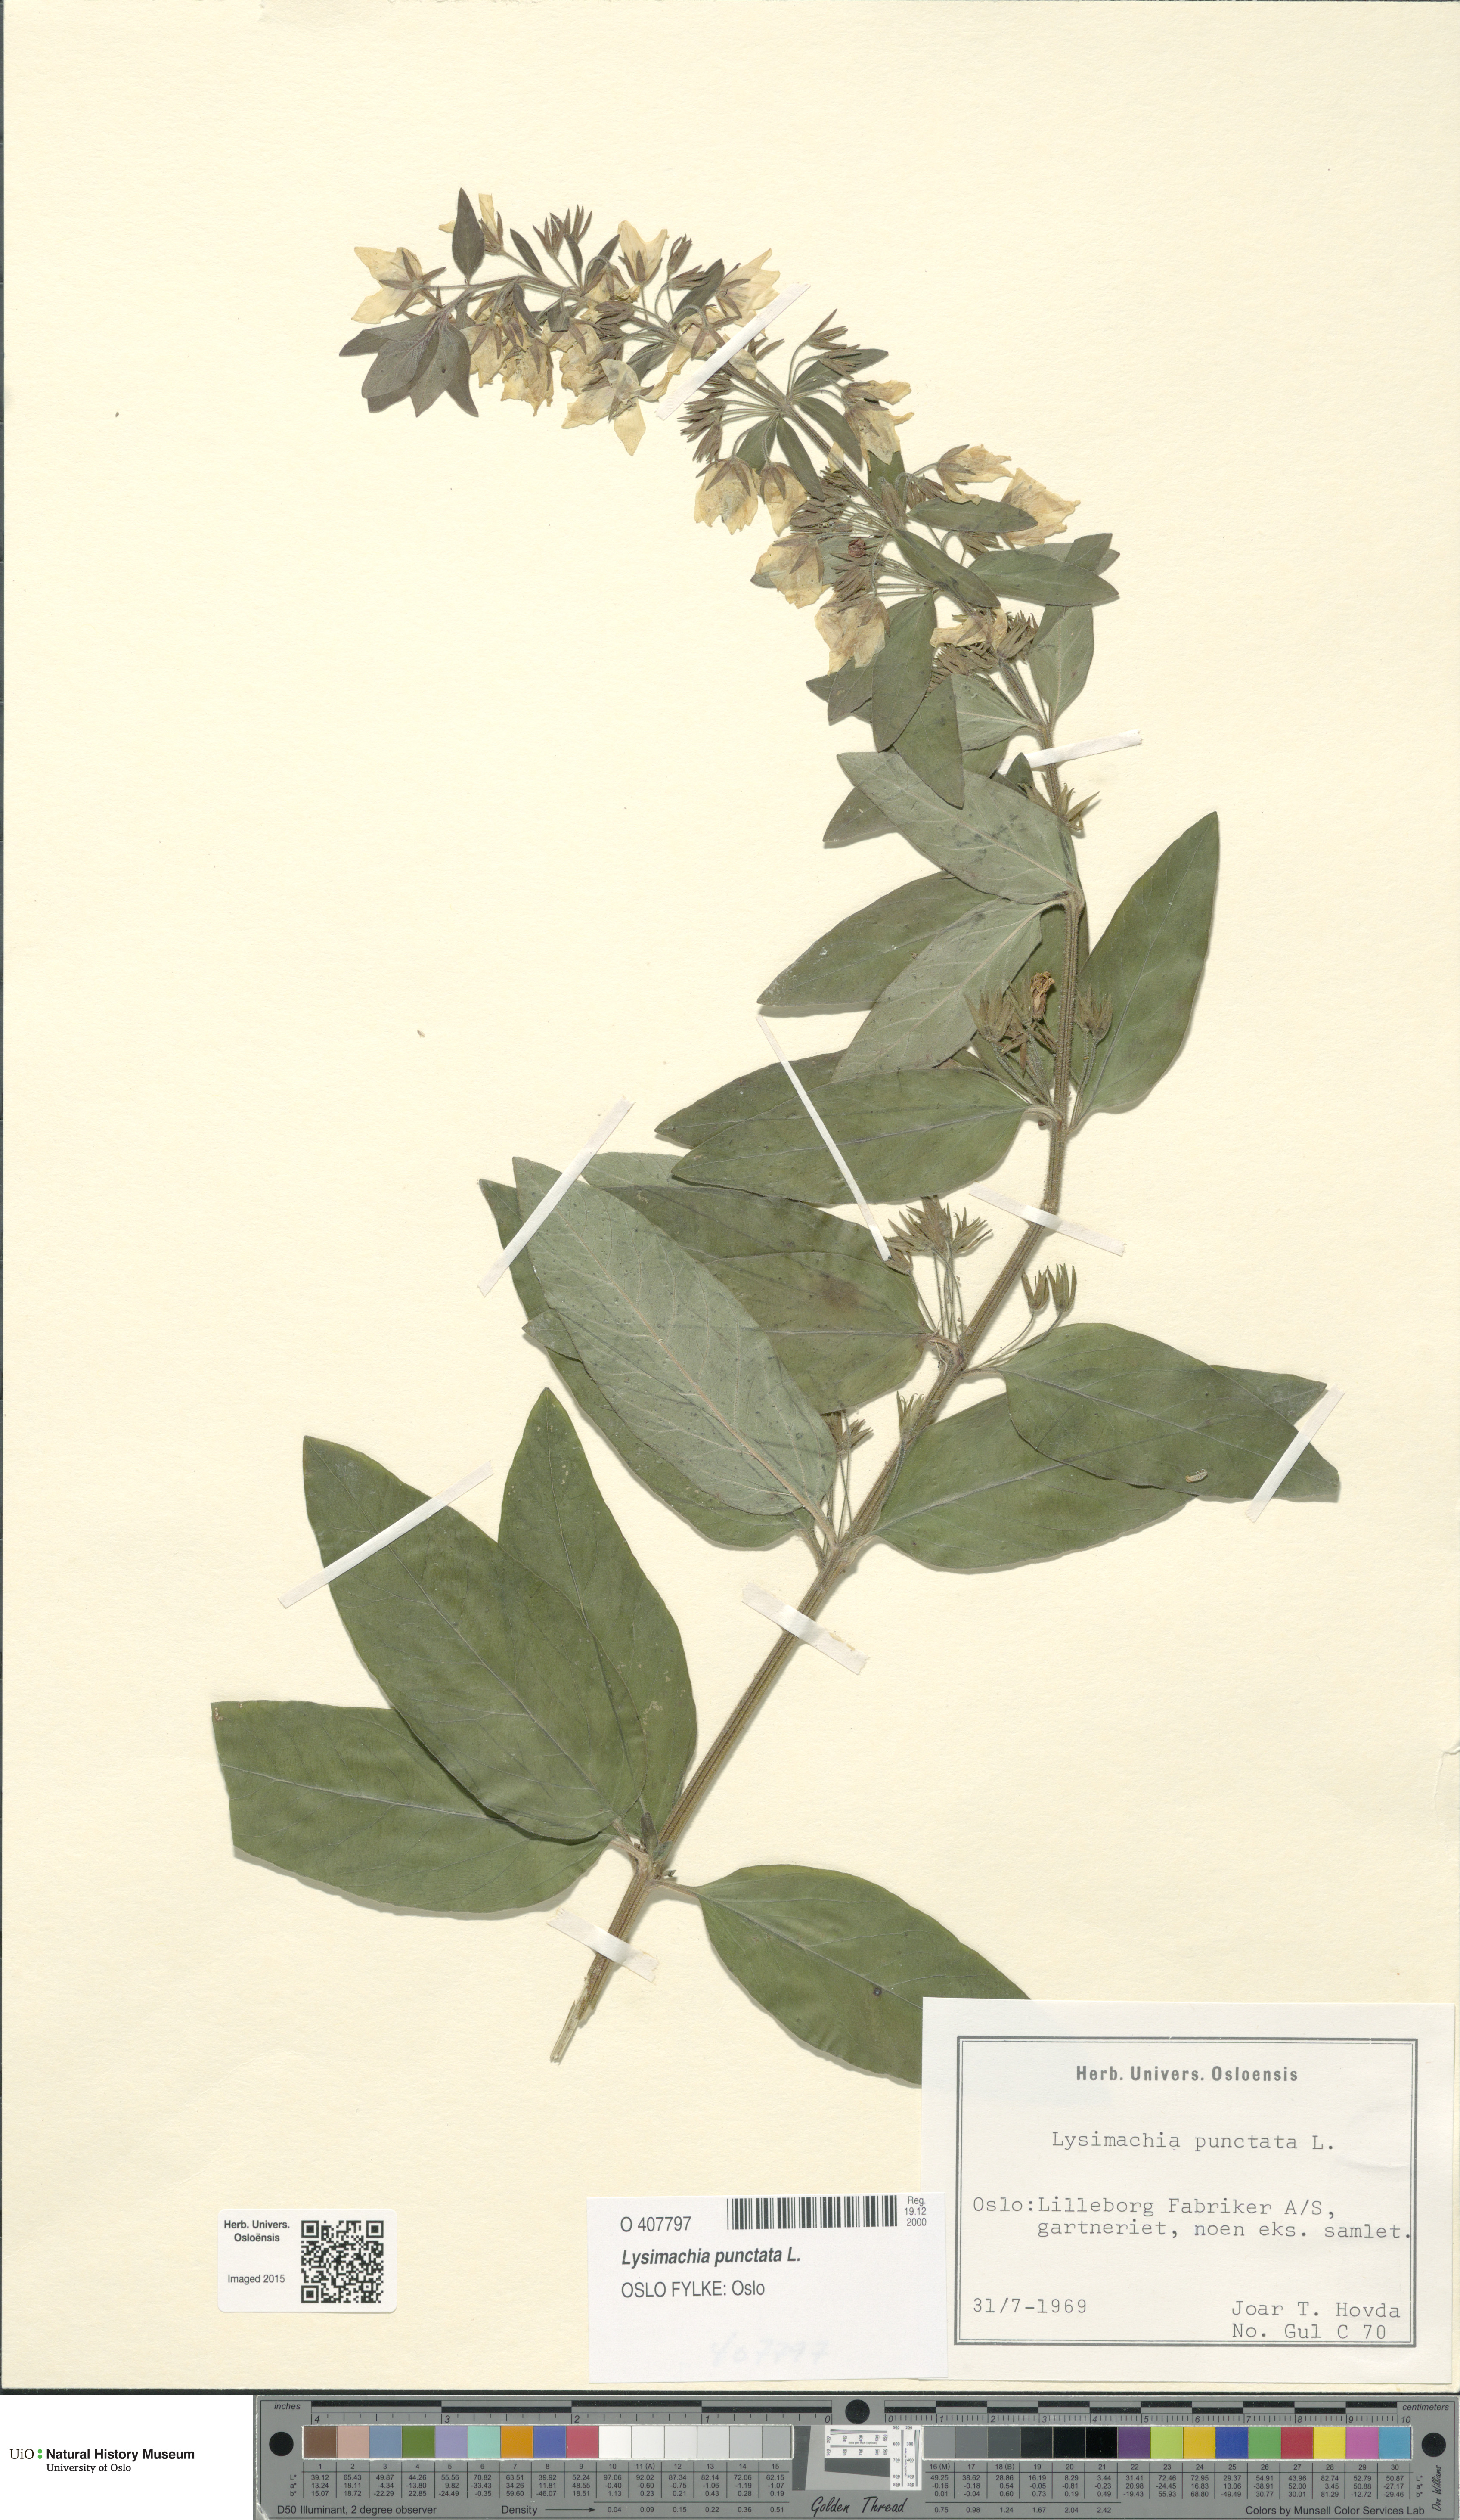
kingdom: Plantae
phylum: Tracheophyta
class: Magnoliopsida
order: Ericales
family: Primulaceae
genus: Lysimachia
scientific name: Lysimachia punctata
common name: Dotted loosestrife
